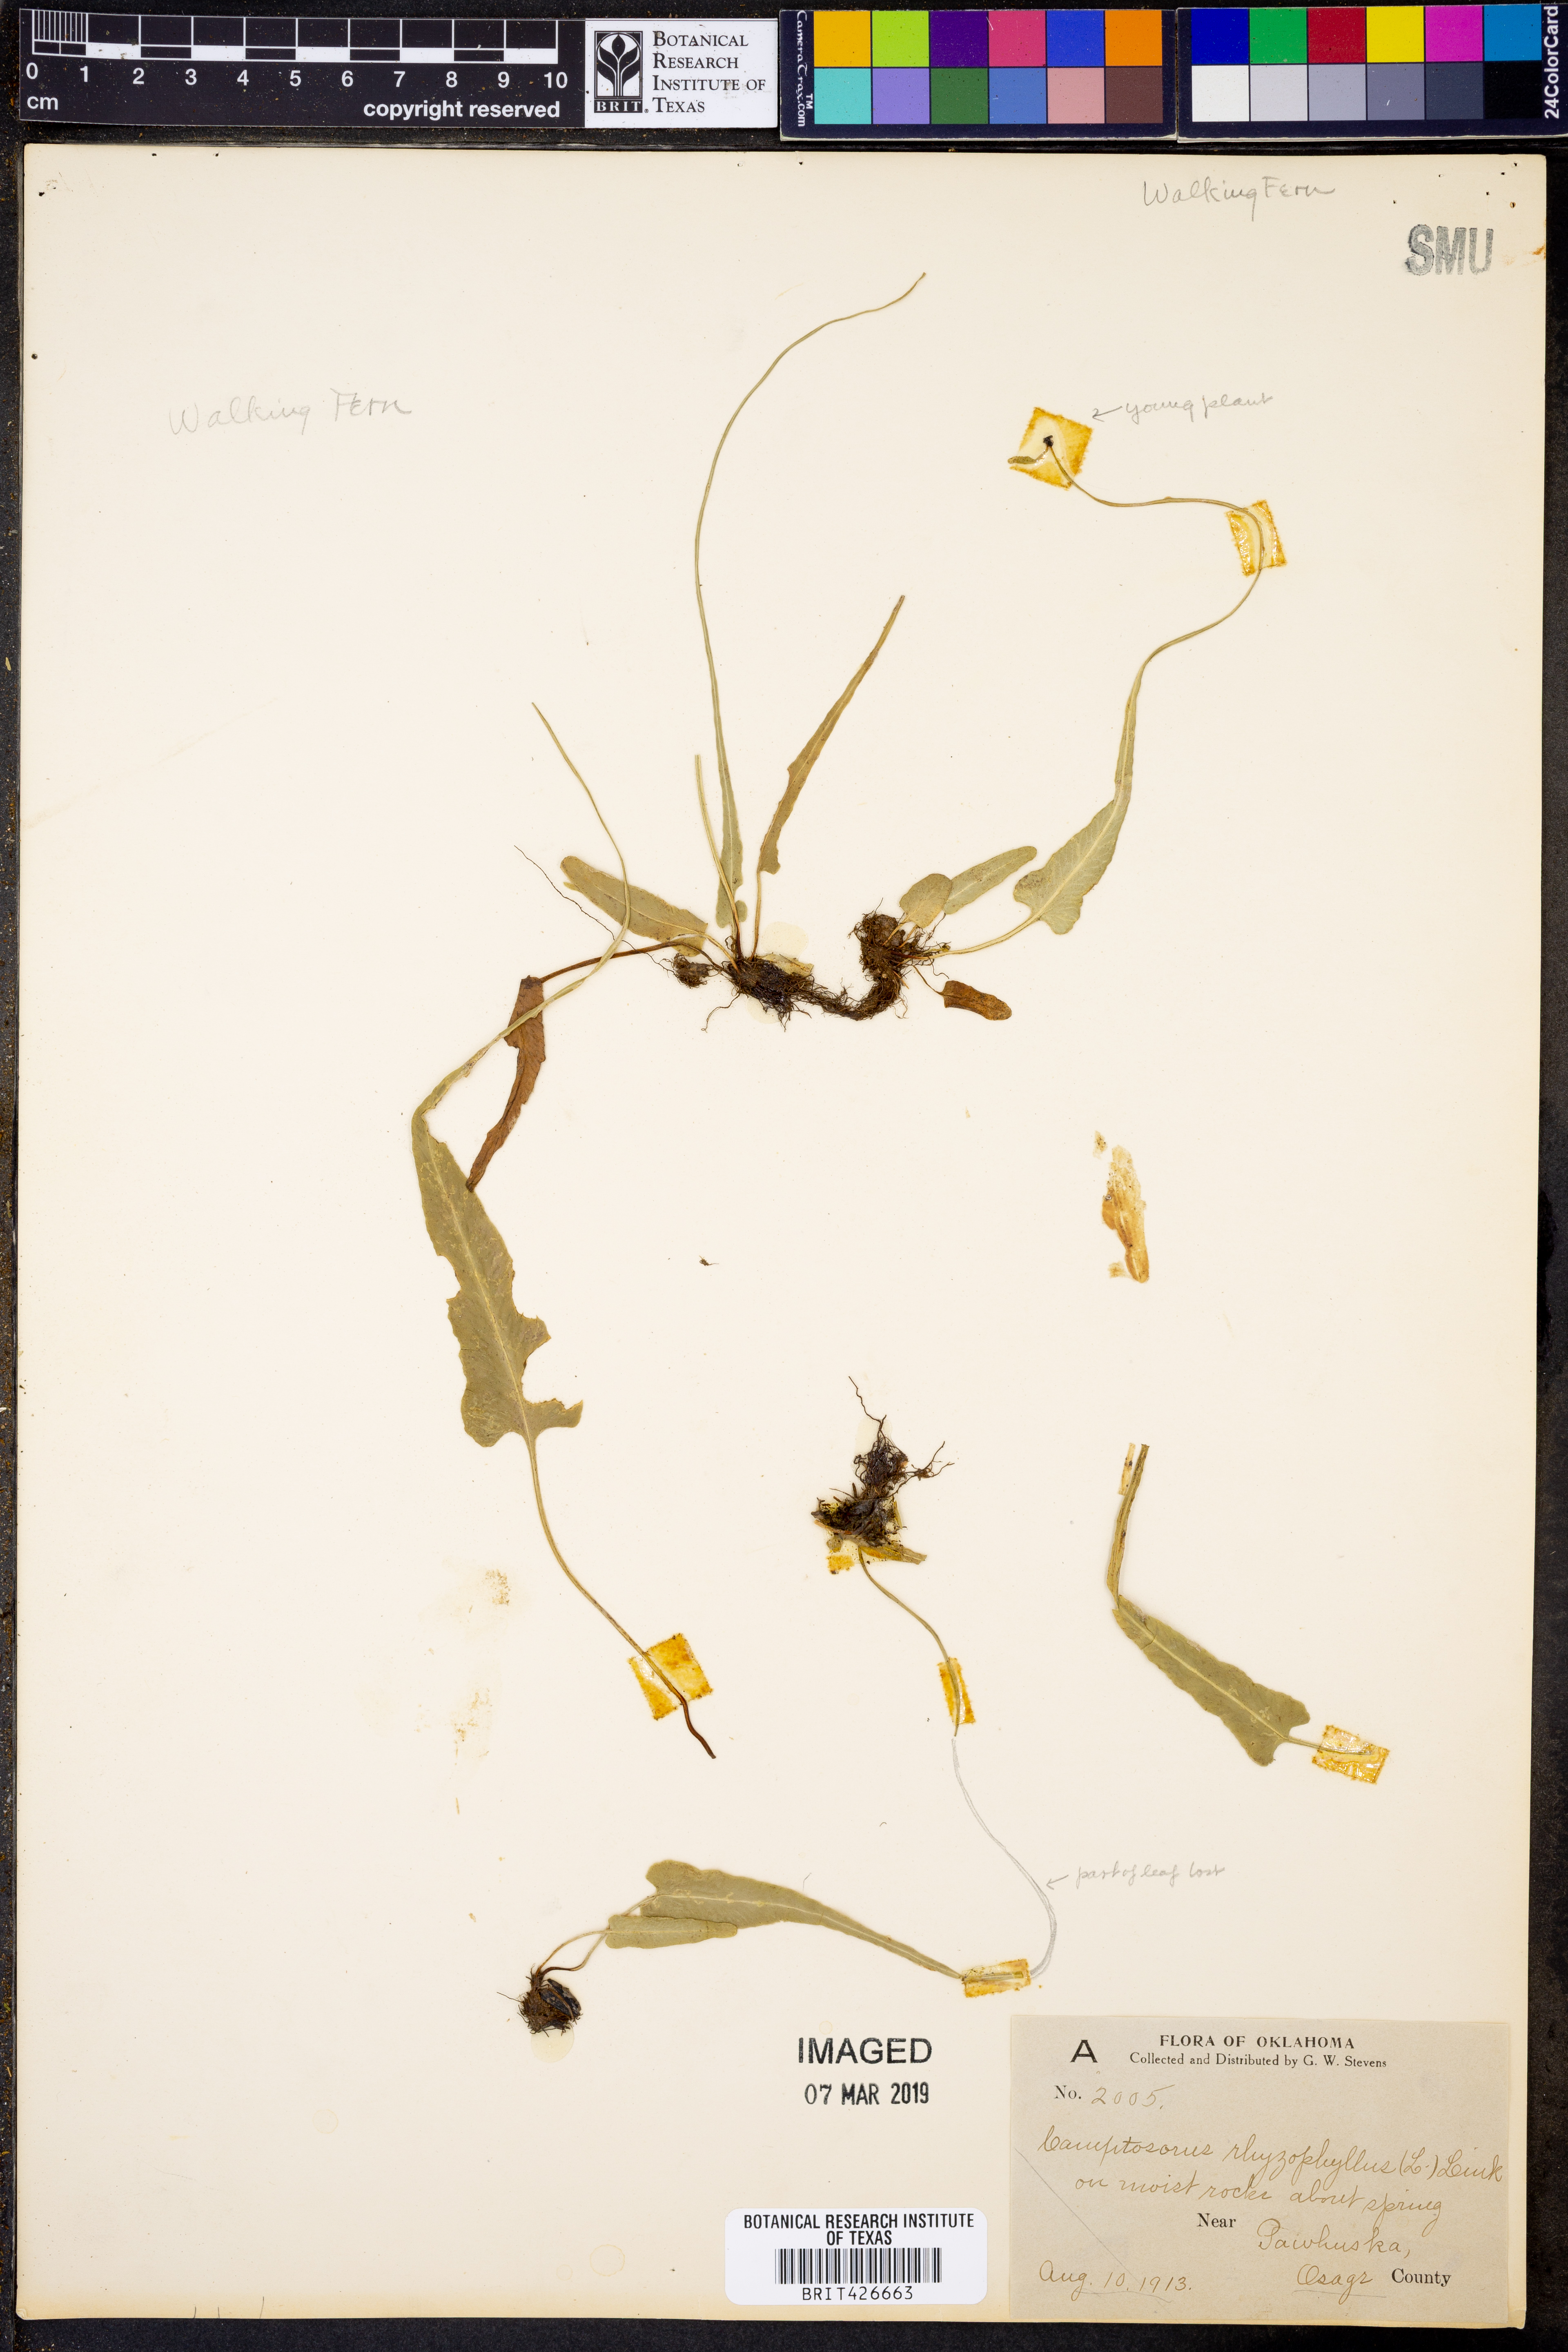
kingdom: Plantae
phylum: Tracheophyta
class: Polypodiopsida
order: Polypodiales
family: Aspleniaceae
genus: Asplenium
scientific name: Asplenium rhizophyllum
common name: Walking fern
